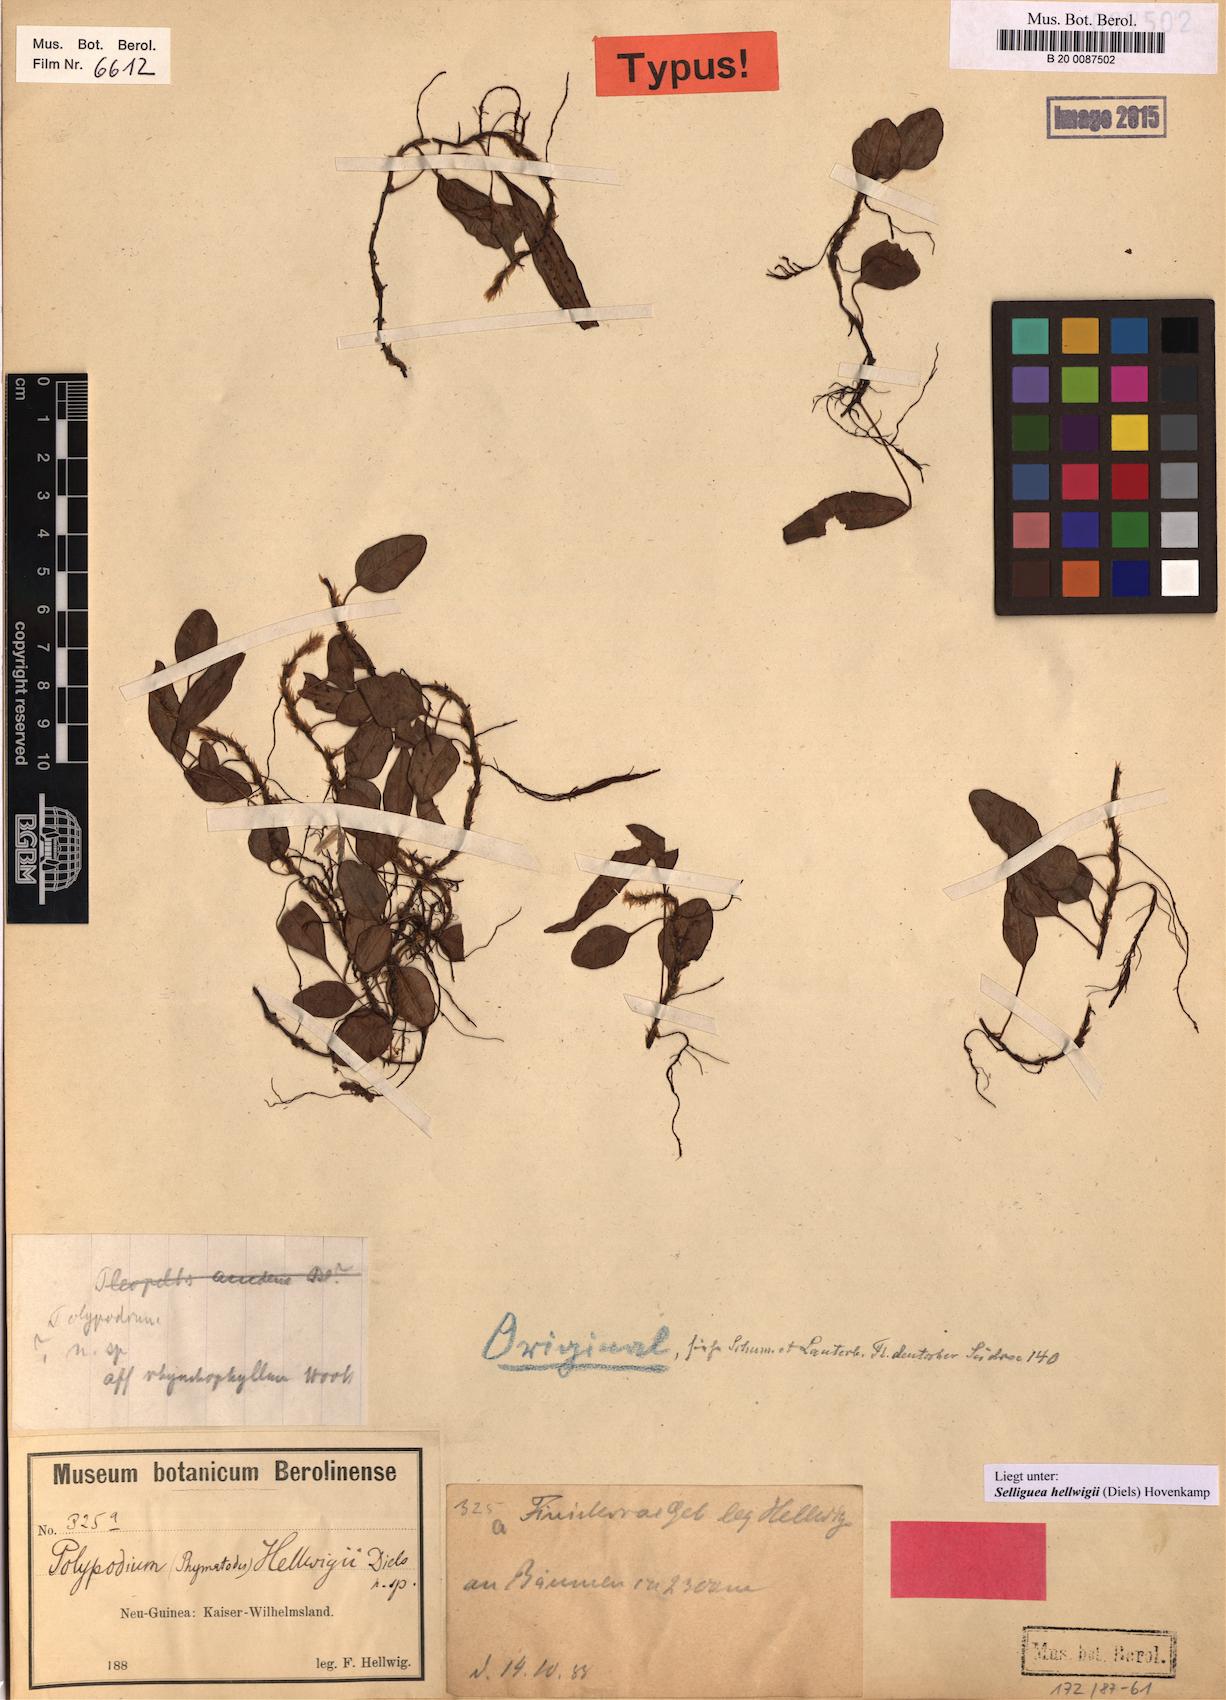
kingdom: Plantae
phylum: Tracheophyta
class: Polypodiopsida
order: Polypodiales
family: Polypodiaceae
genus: Selliguea
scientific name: Selliguea hellwigii
